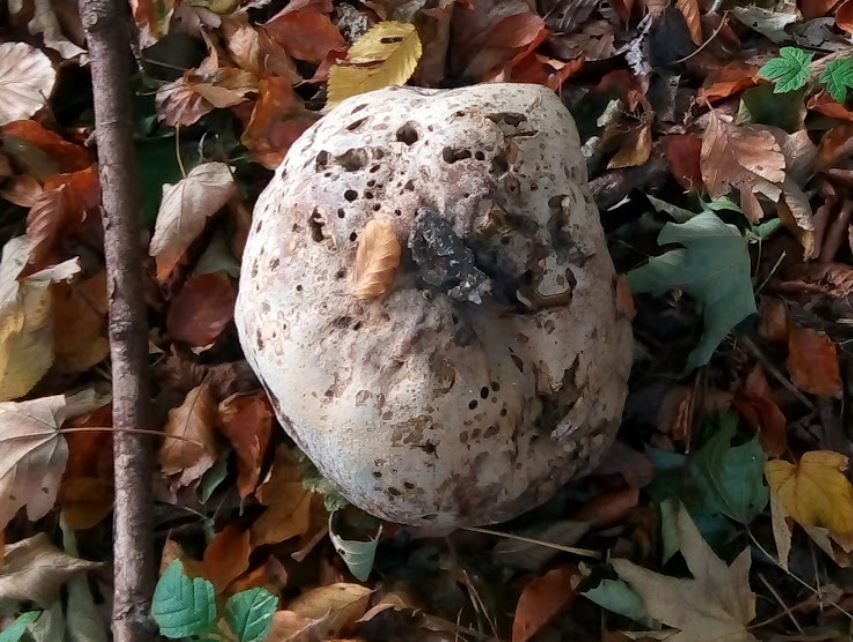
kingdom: Fungi
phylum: Basidiomycota
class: Agaricomycetes
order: Agaricales
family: Lycoperdaceae
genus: Calvatia
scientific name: Calvatia gigantea
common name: kæmpestøvbold
